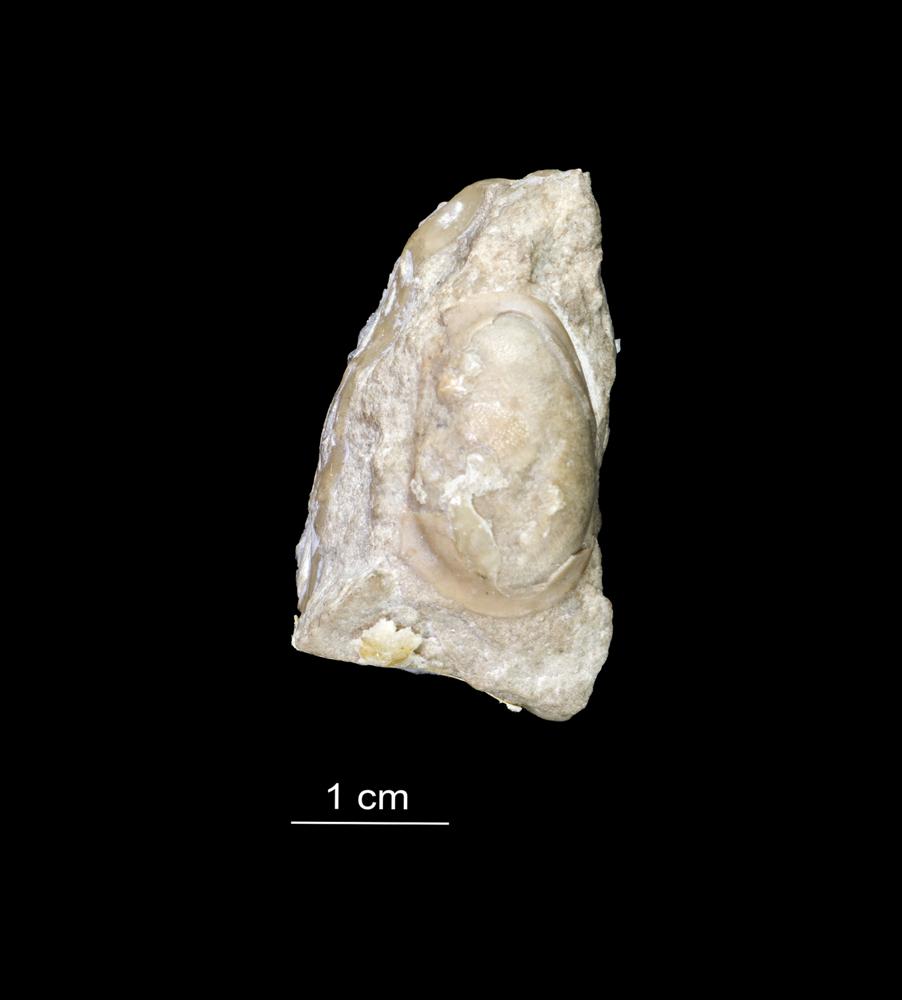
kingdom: Animalia
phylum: Arthropoda
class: Ostracoda
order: Platycopida
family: Leperditiidae
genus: Leperditia
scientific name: Leperditia grandis
